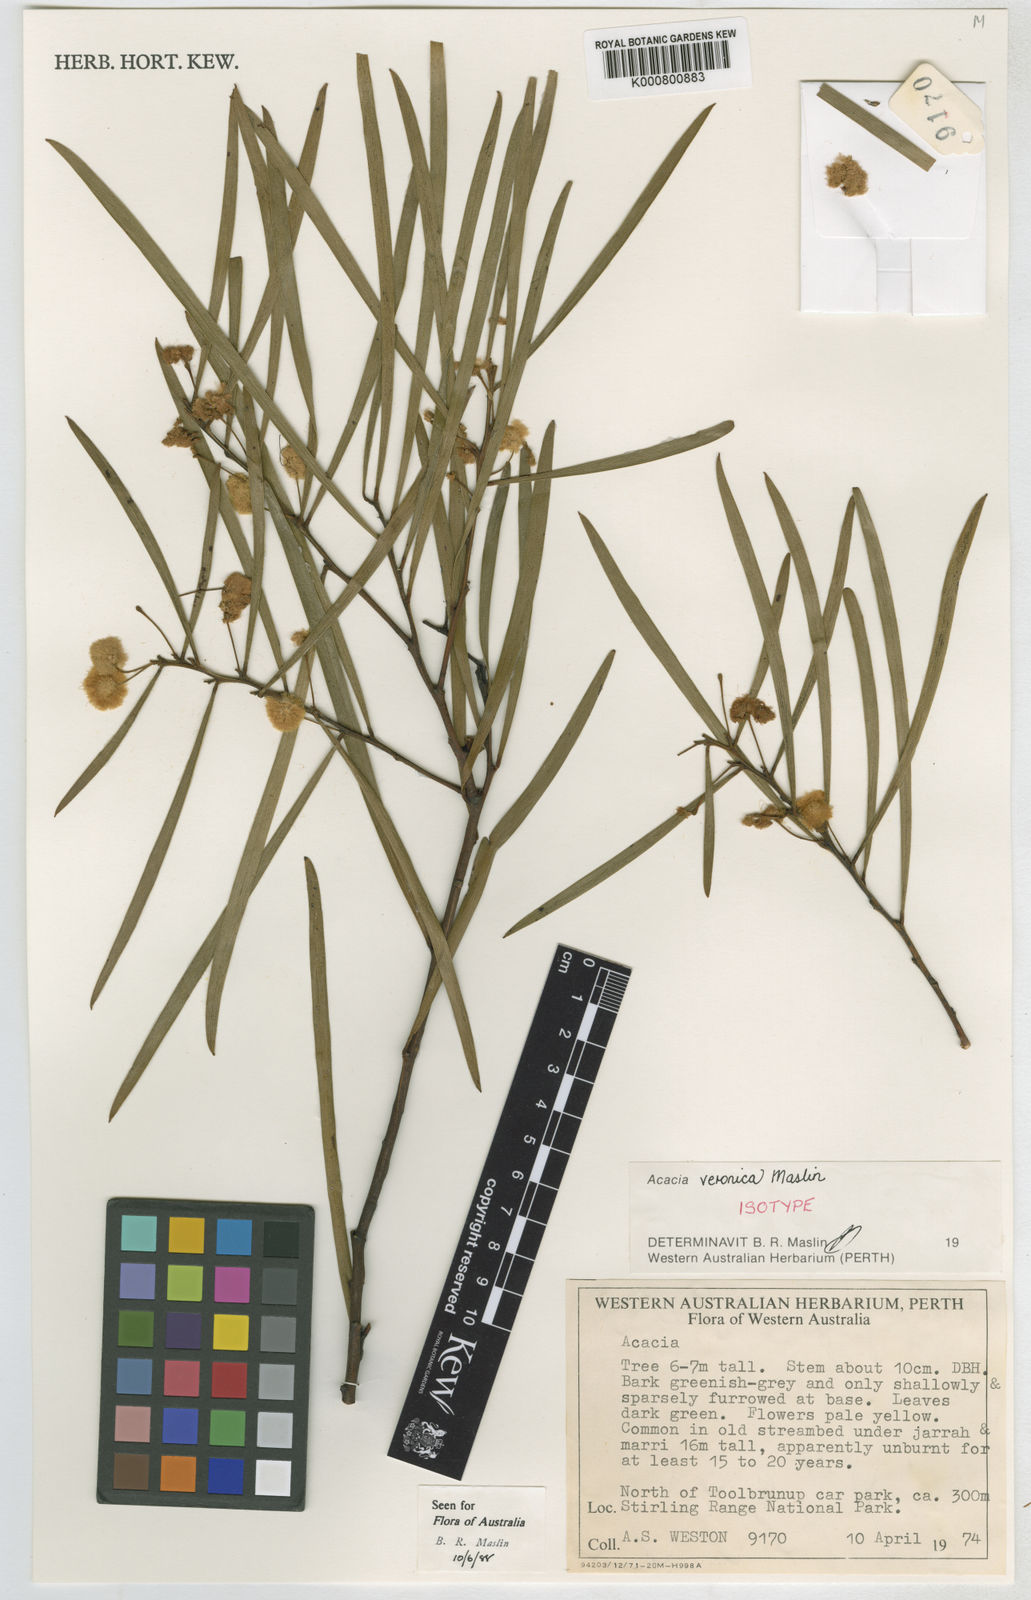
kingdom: Plantae
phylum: Tracheophyta
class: Magnoliopsida
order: Fabales
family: Fabaceae
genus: Acacia
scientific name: Acacia veronica
